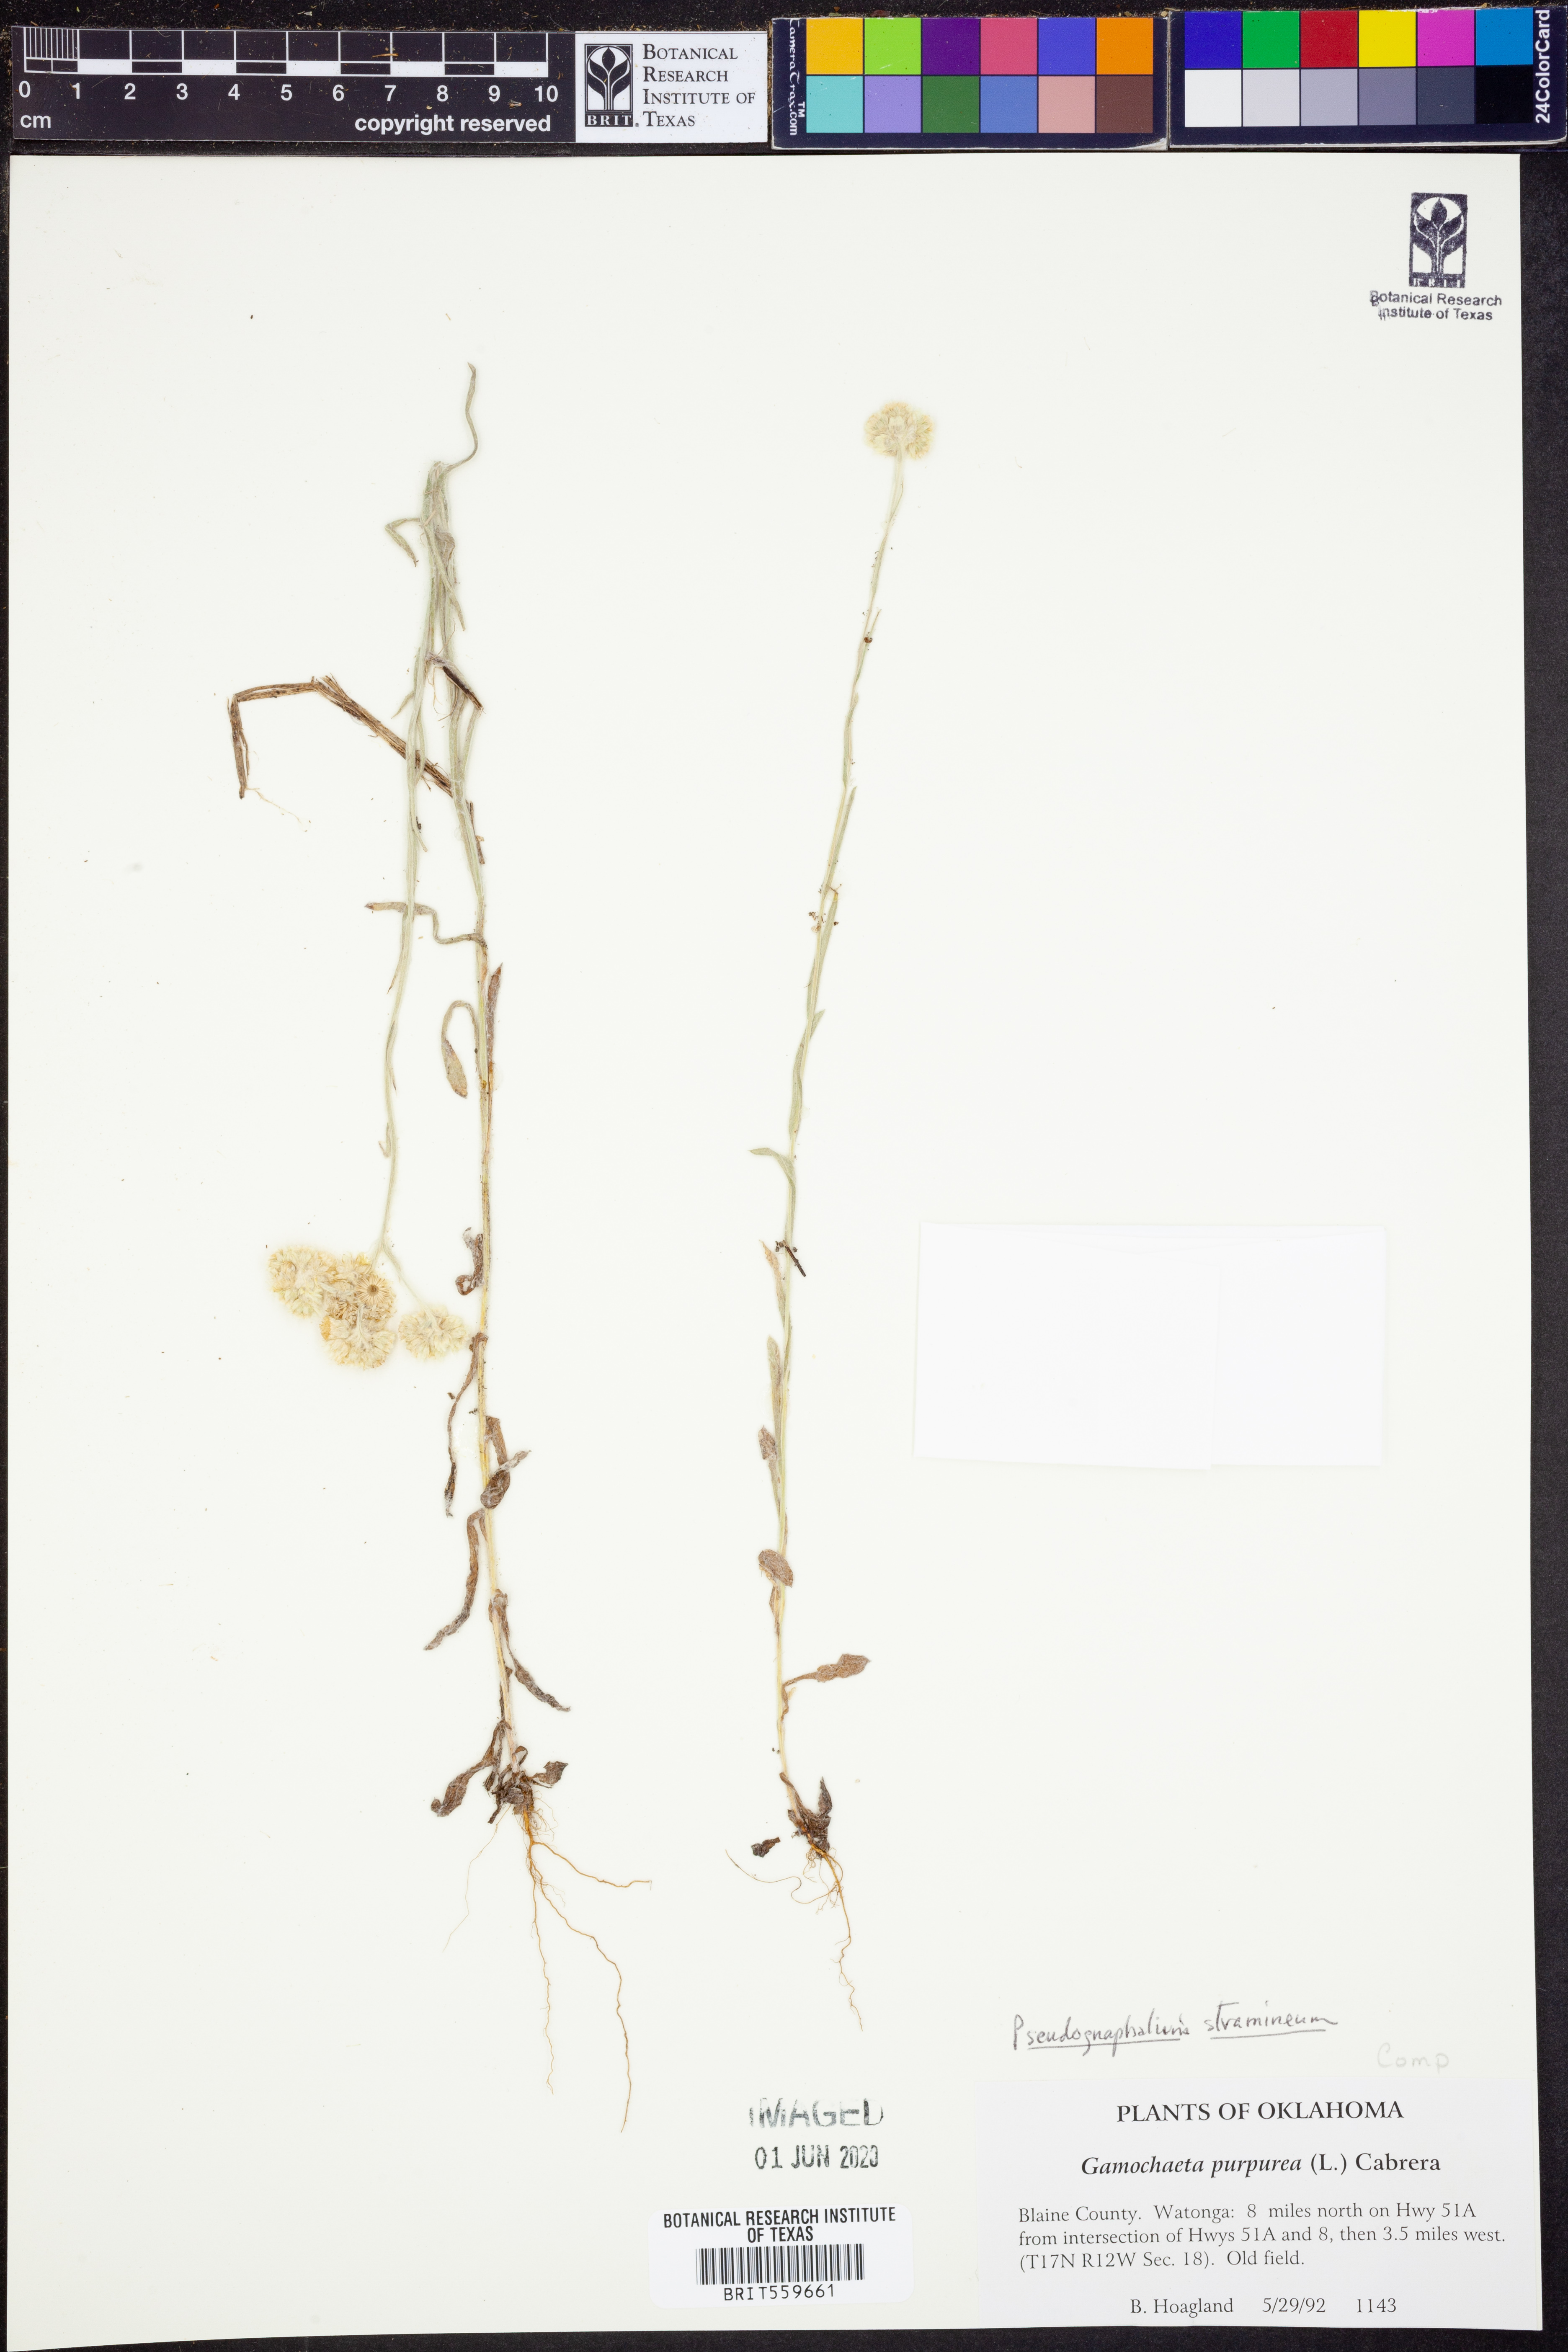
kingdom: Plantae
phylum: Tracheophyta
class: Magnoliopsida
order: Asterales
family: Asteraceae
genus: Pseudognaphalium
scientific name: Pseudognaphalium stramineum
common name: Cotton-batting-plant
